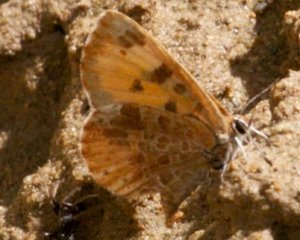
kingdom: Animalia
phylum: Arthropoda
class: Insecta
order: Lepidoptera
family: Lycaenidae
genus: Feniseca
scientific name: Feniseca tarquinius
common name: Harvester
